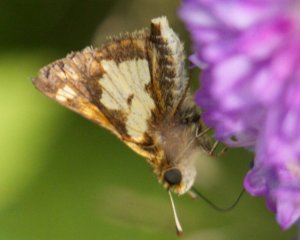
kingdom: Animalia
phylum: Arthropoda
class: Insecta
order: Lepidoptera
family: Hesperiidae
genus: Polites
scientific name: Polites coras
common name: Peck's Skipper
